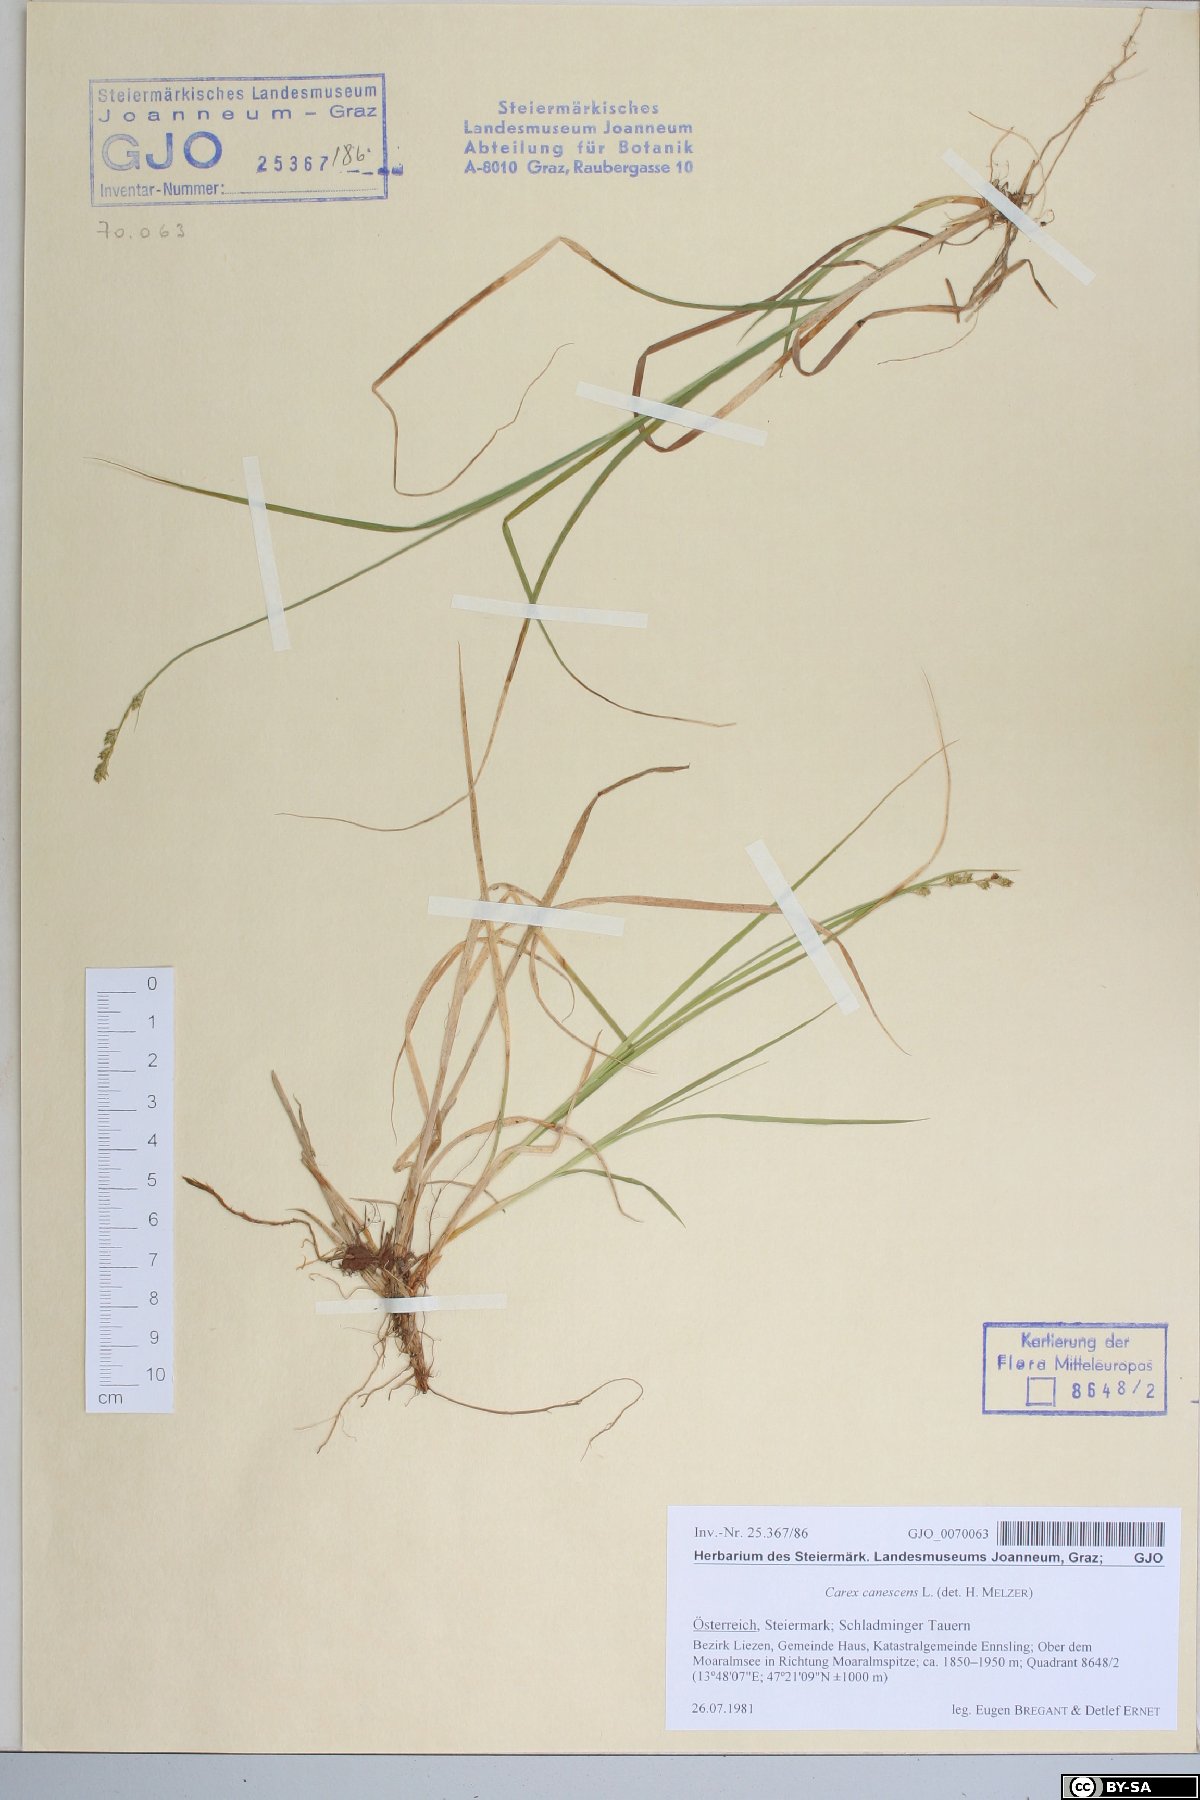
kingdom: Plantae
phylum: Tracheophyta
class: Liliopsida
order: Poales
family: Cyperaceae
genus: Carex
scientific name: Carex canescens
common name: White sedge
